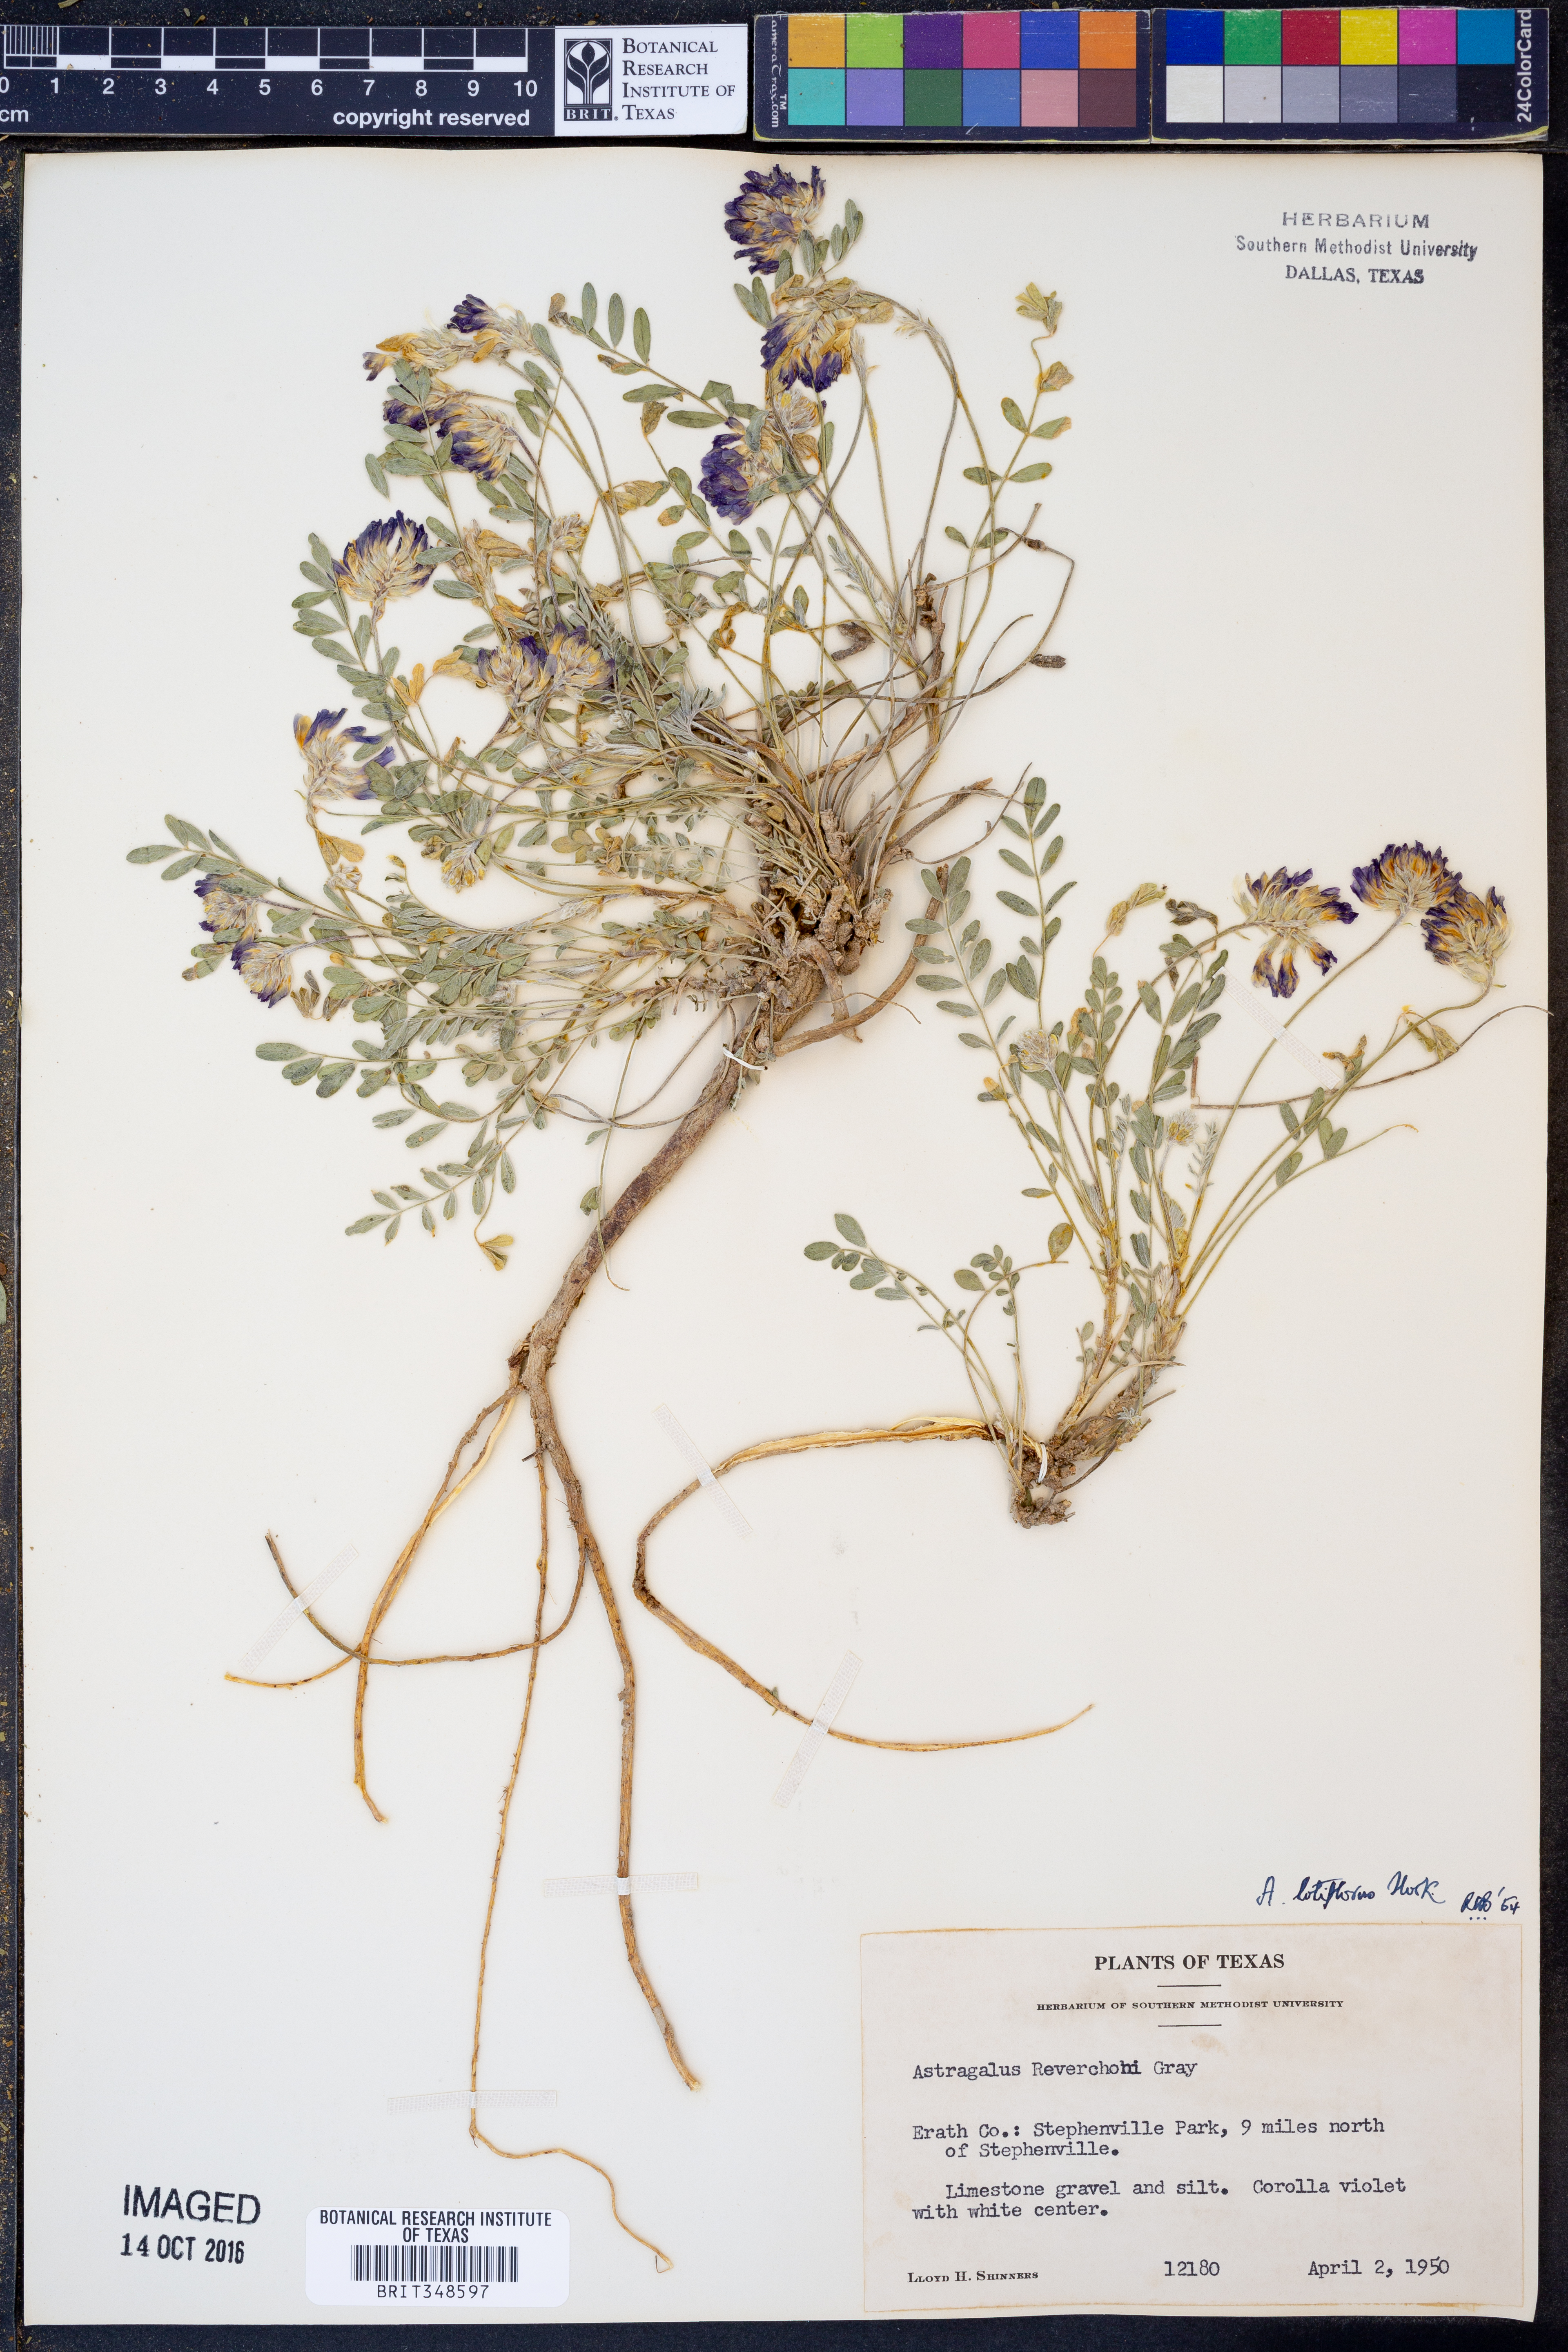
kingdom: Plantae
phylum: Tracheophyta
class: Magnoliopsida
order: Fabales
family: Fabaceae
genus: Astragalus
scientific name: Astragalus lotiflorus
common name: Lotus milk-vetch
